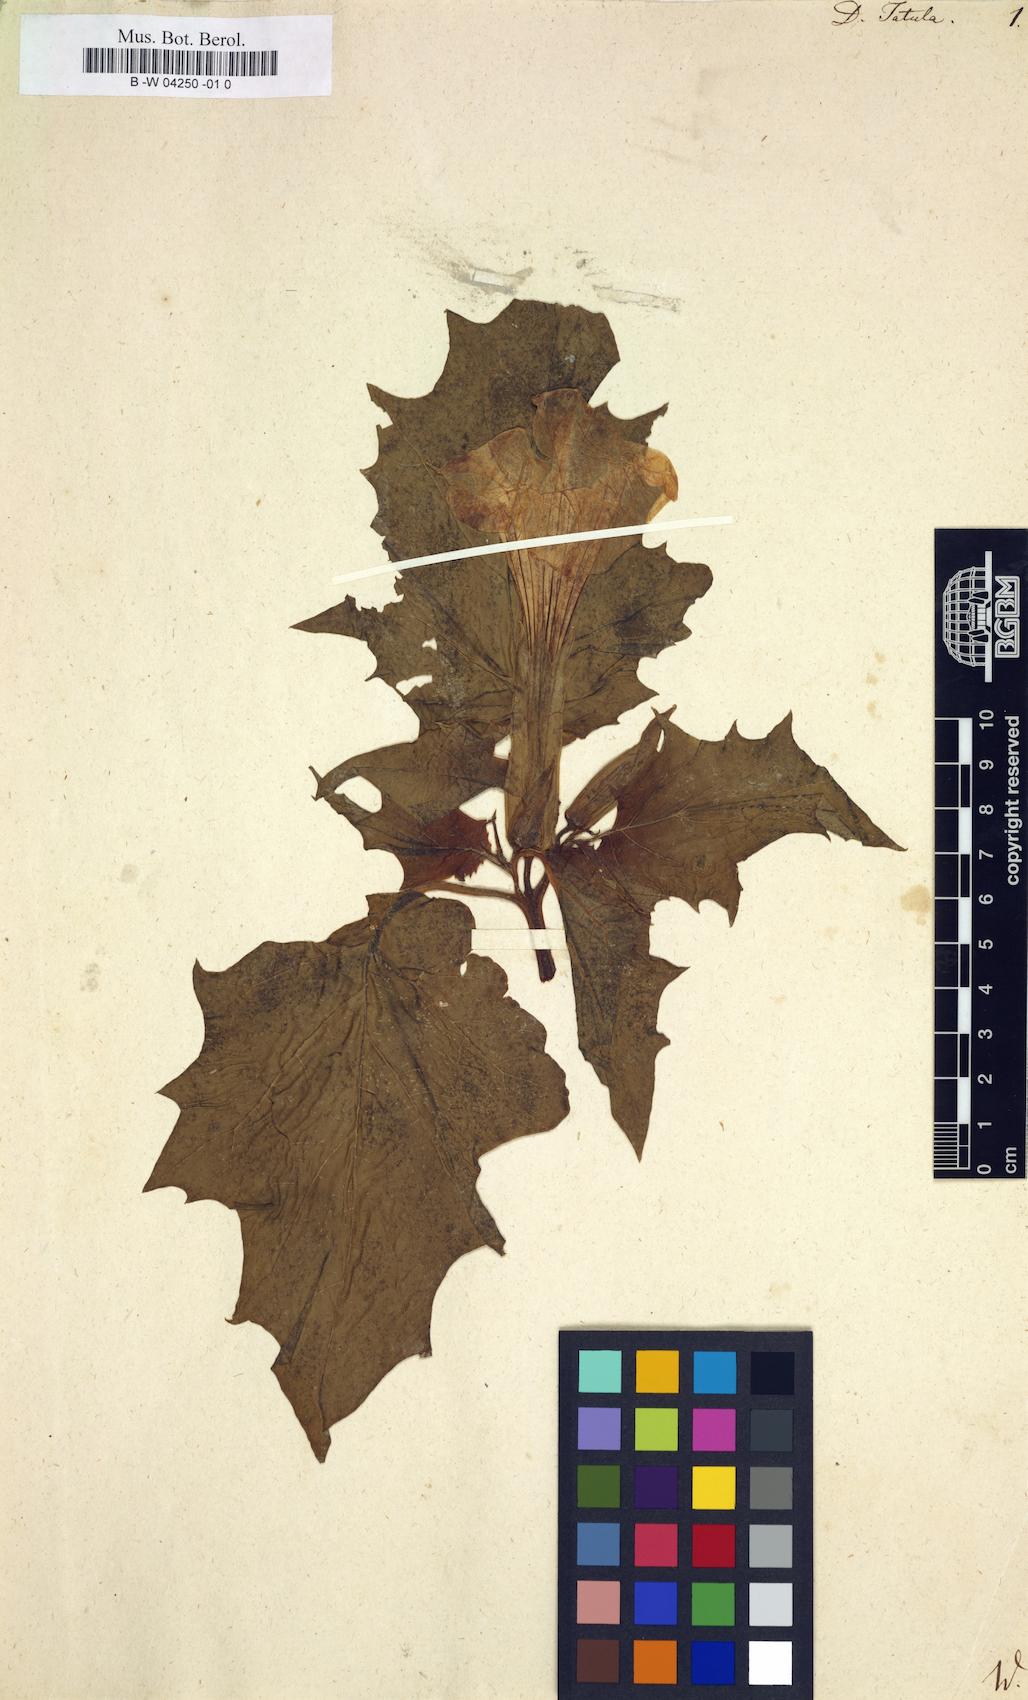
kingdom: Plantae
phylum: Tracheophyta
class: Magnoliopsida
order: Solanales
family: Solanaceae
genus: Datura
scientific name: Datura stramonium
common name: Thorn-apple
